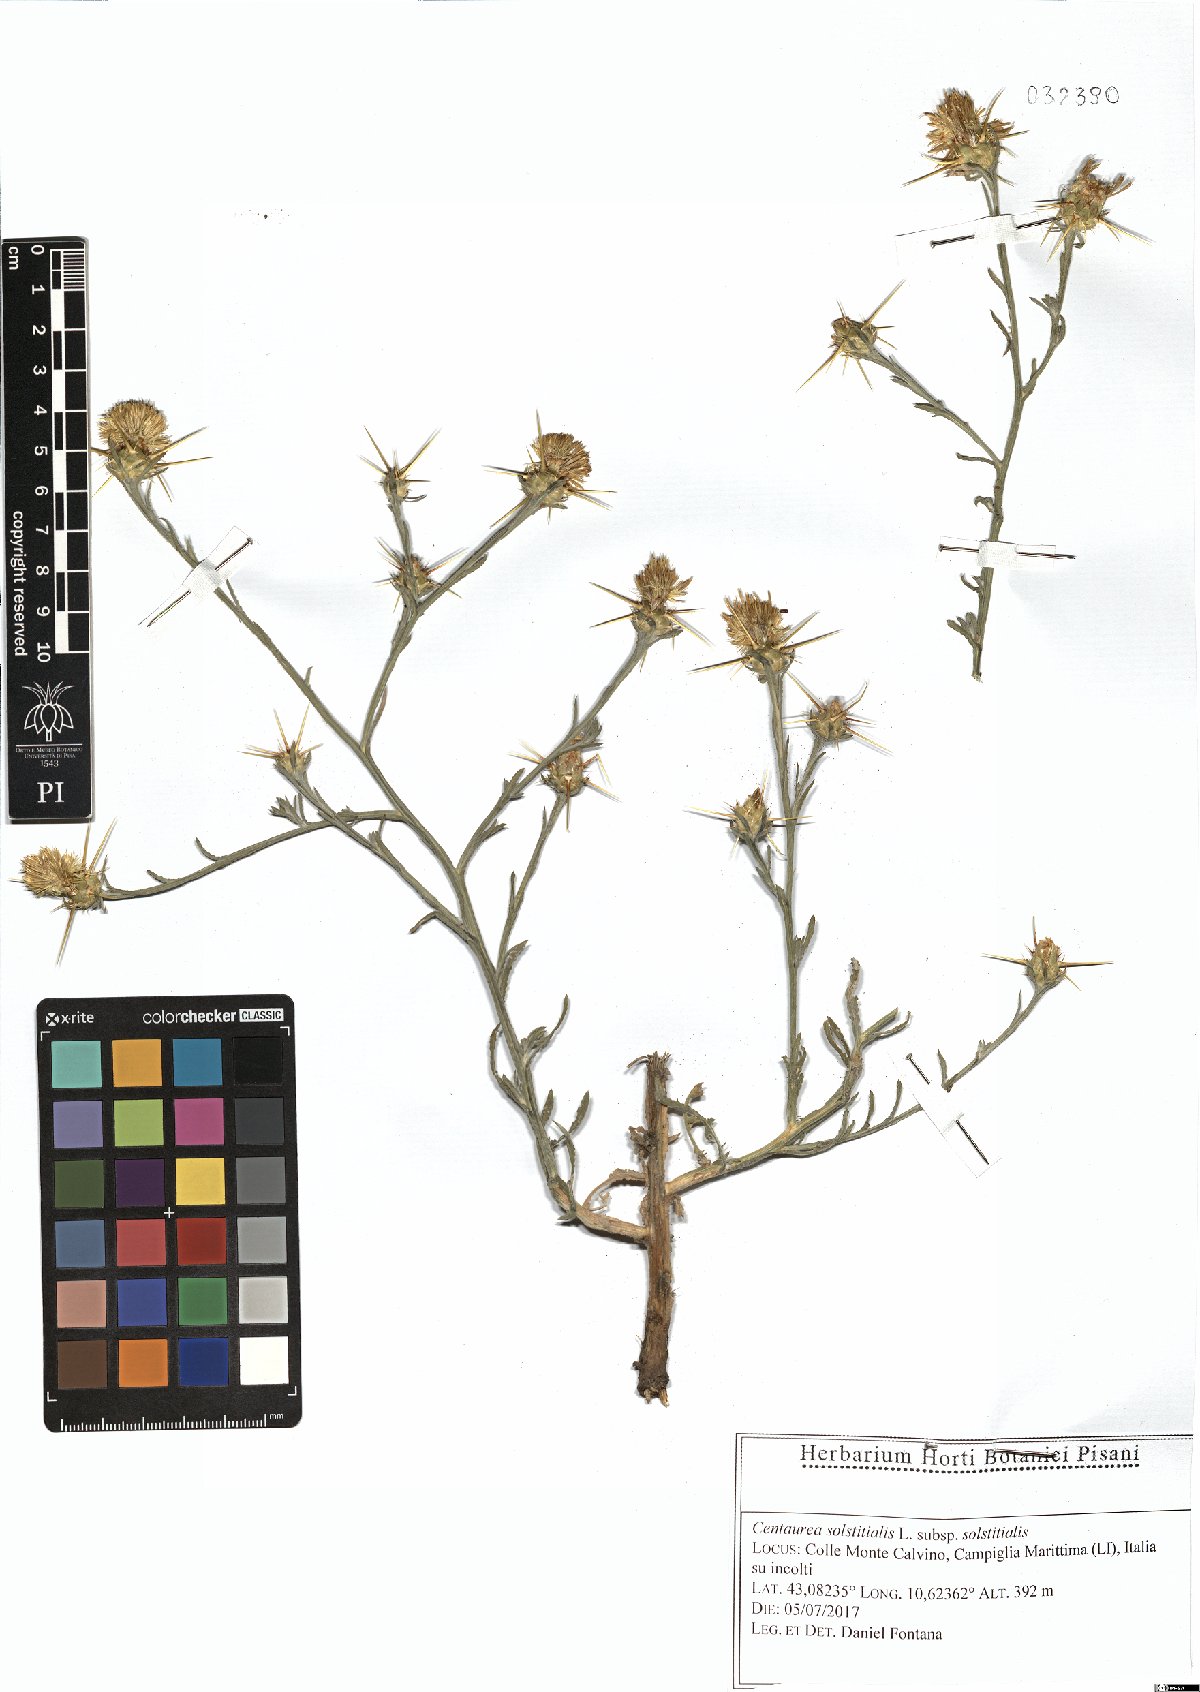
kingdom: Plantae
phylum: Tracheophyta
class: Magnoliopsida
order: Asterales
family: Asteraceae
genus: Centaurea
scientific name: Centaurea solstitialis
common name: Yellow star-thistle
